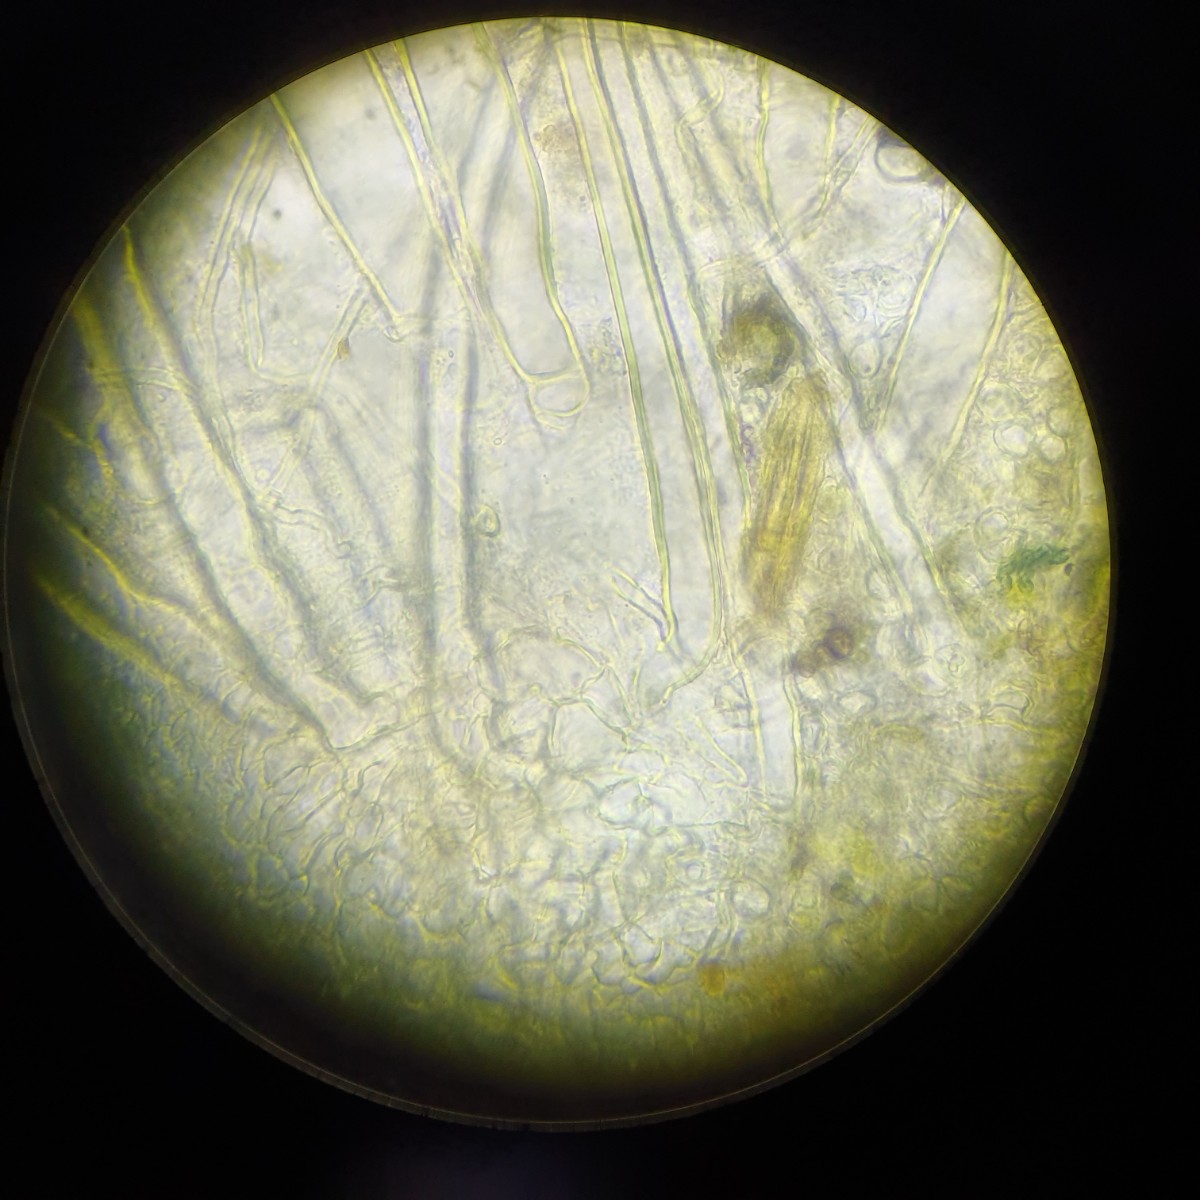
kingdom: Fungi
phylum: Ascomycota
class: Pezizomycetes
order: Pezizales
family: Pyronemataceae
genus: Cheilymenia
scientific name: Cheilymenia fimicola
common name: møg-hårbæger
